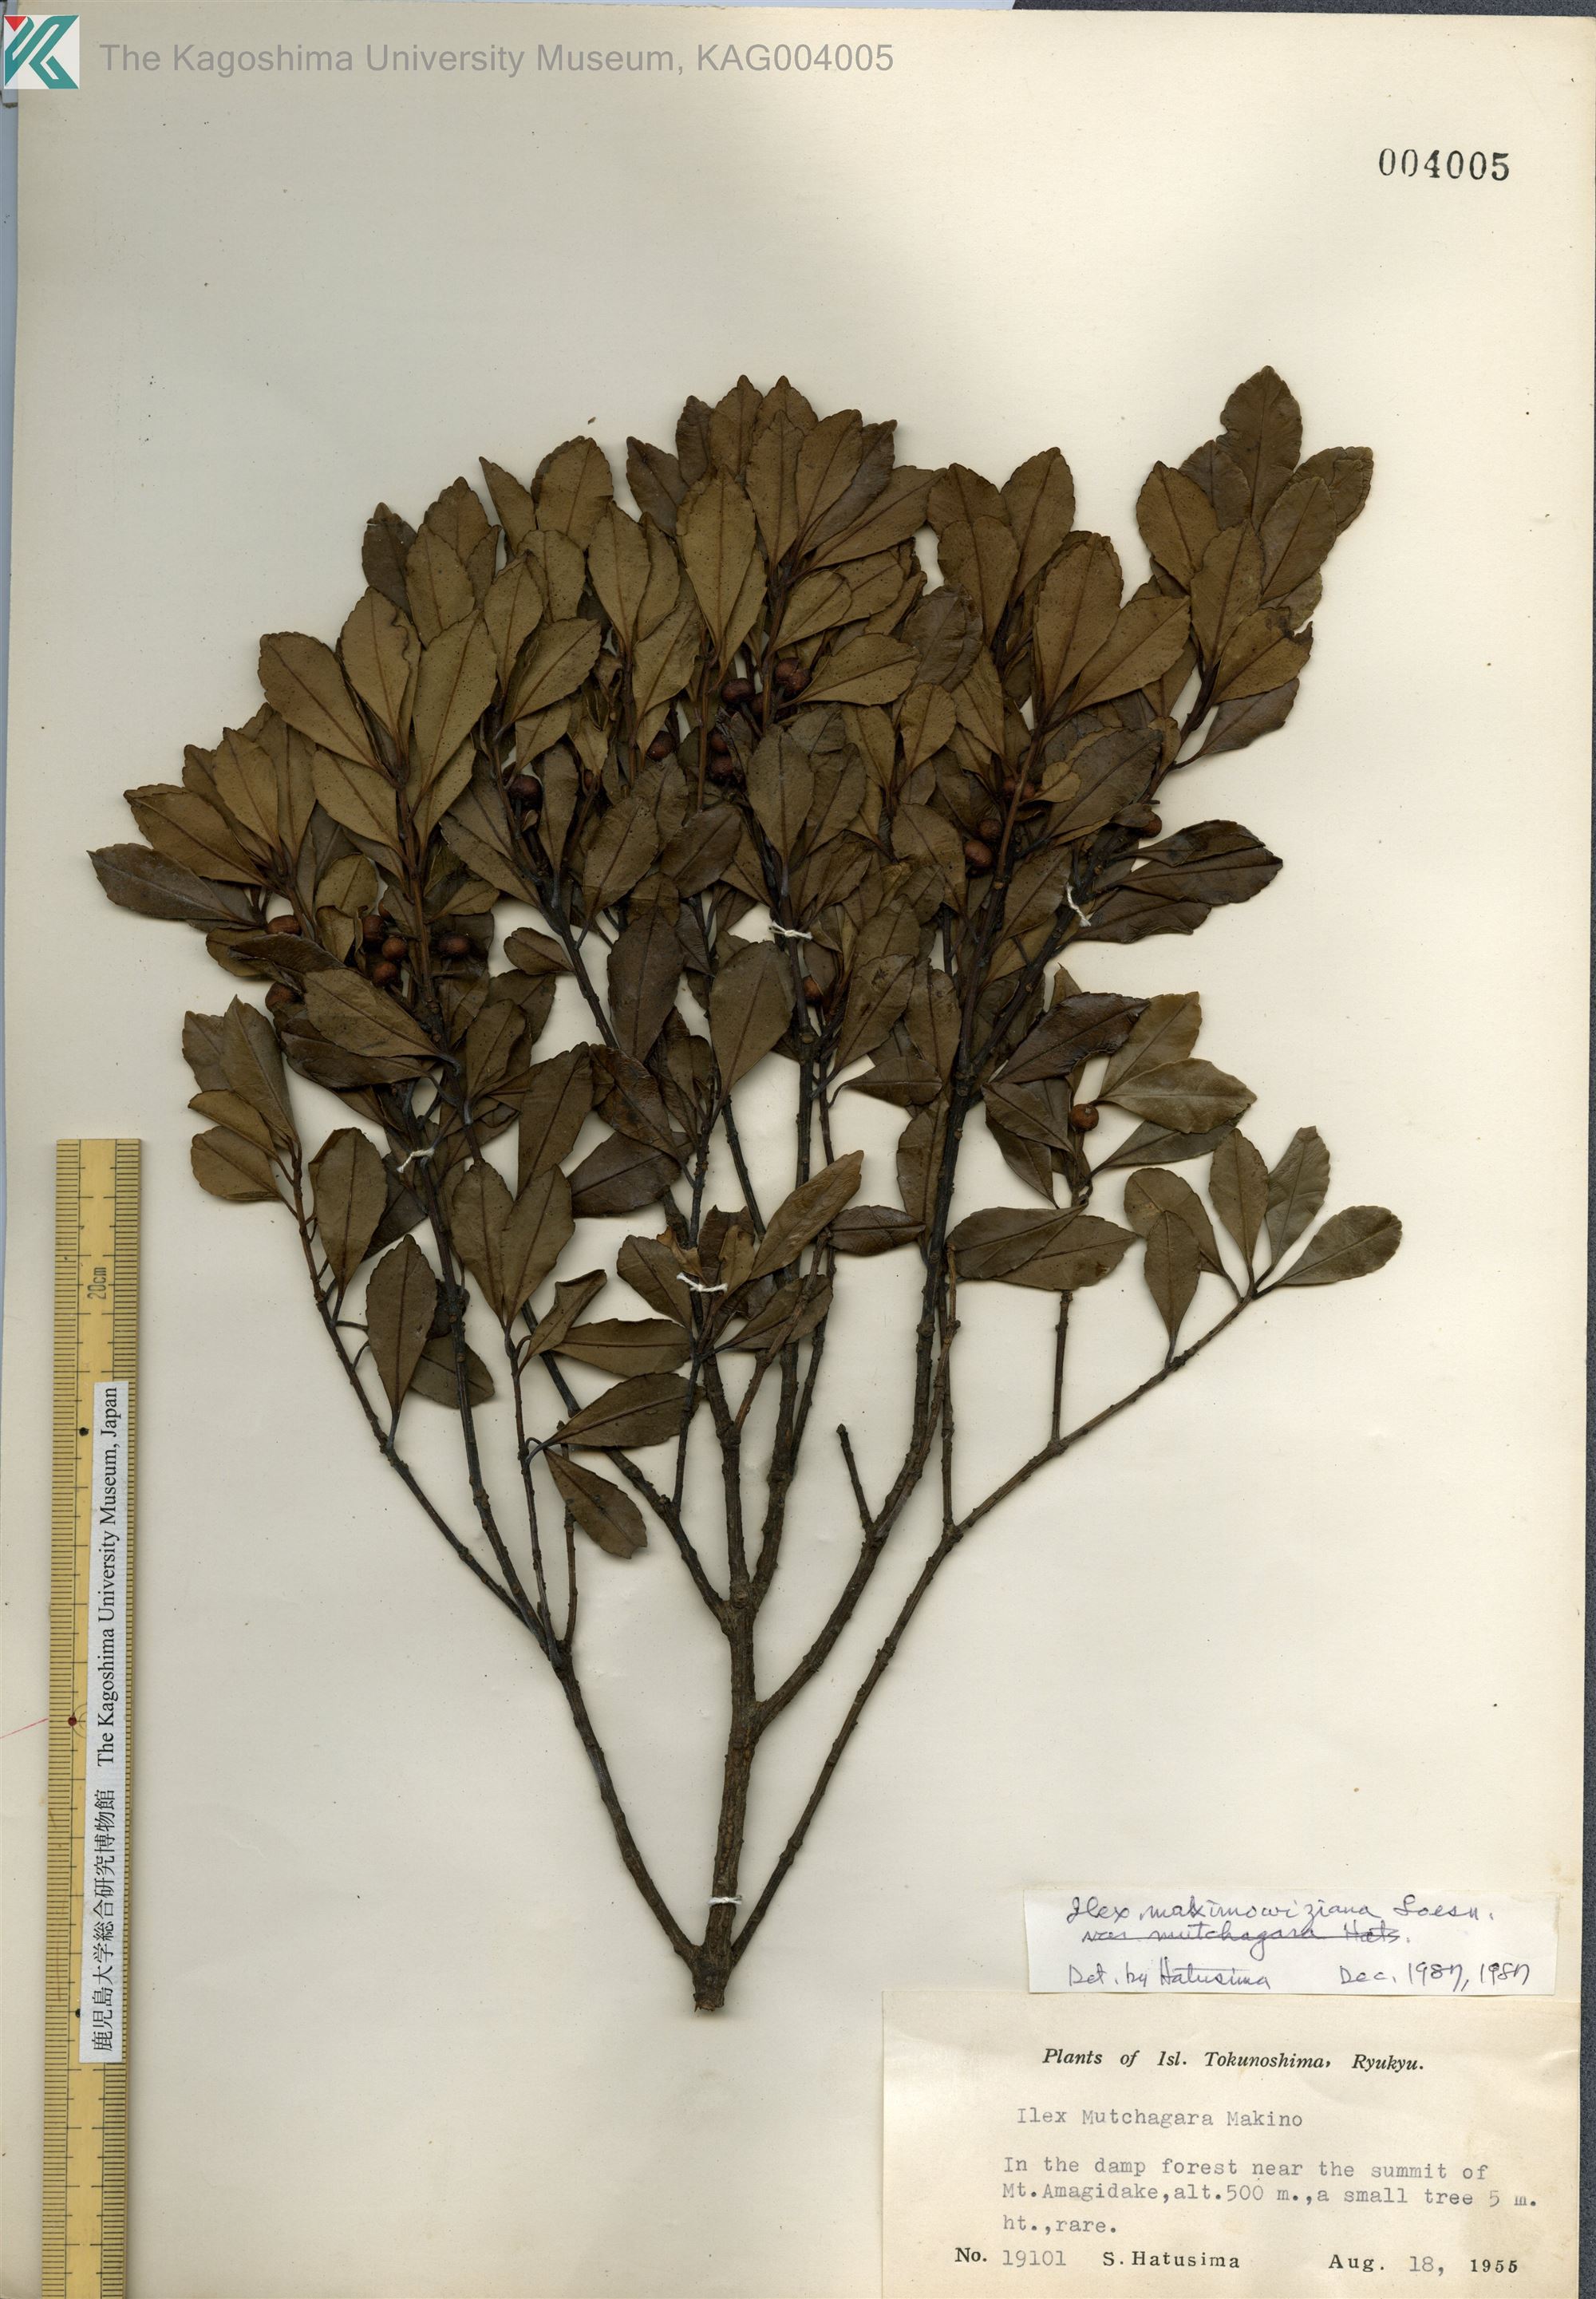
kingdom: Plantae
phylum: Tracheophyta
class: Magnoliopsida
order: Aquifoliales
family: Aquifoliaceae
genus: Ilex
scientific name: Ilex maximowicziana
